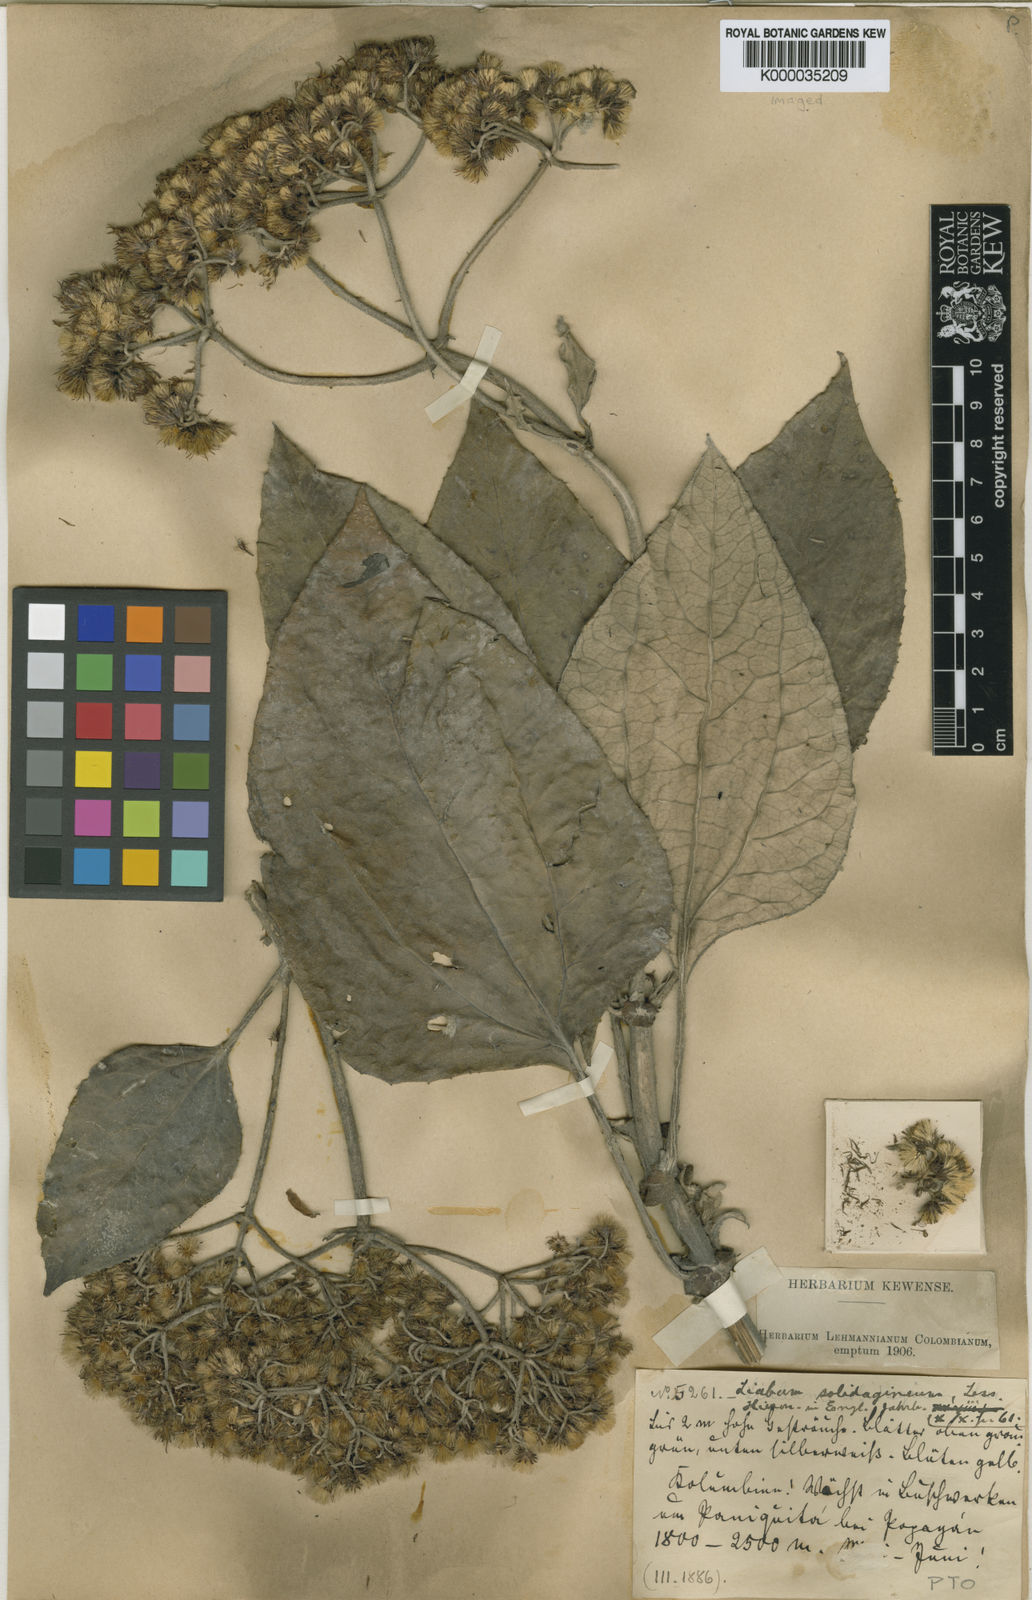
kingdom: Plantae
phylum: Tracheophyta
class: Magnoliopsida
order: Asterales
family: Asteraceae
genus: Liabum
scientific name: Liabum solidagineum
